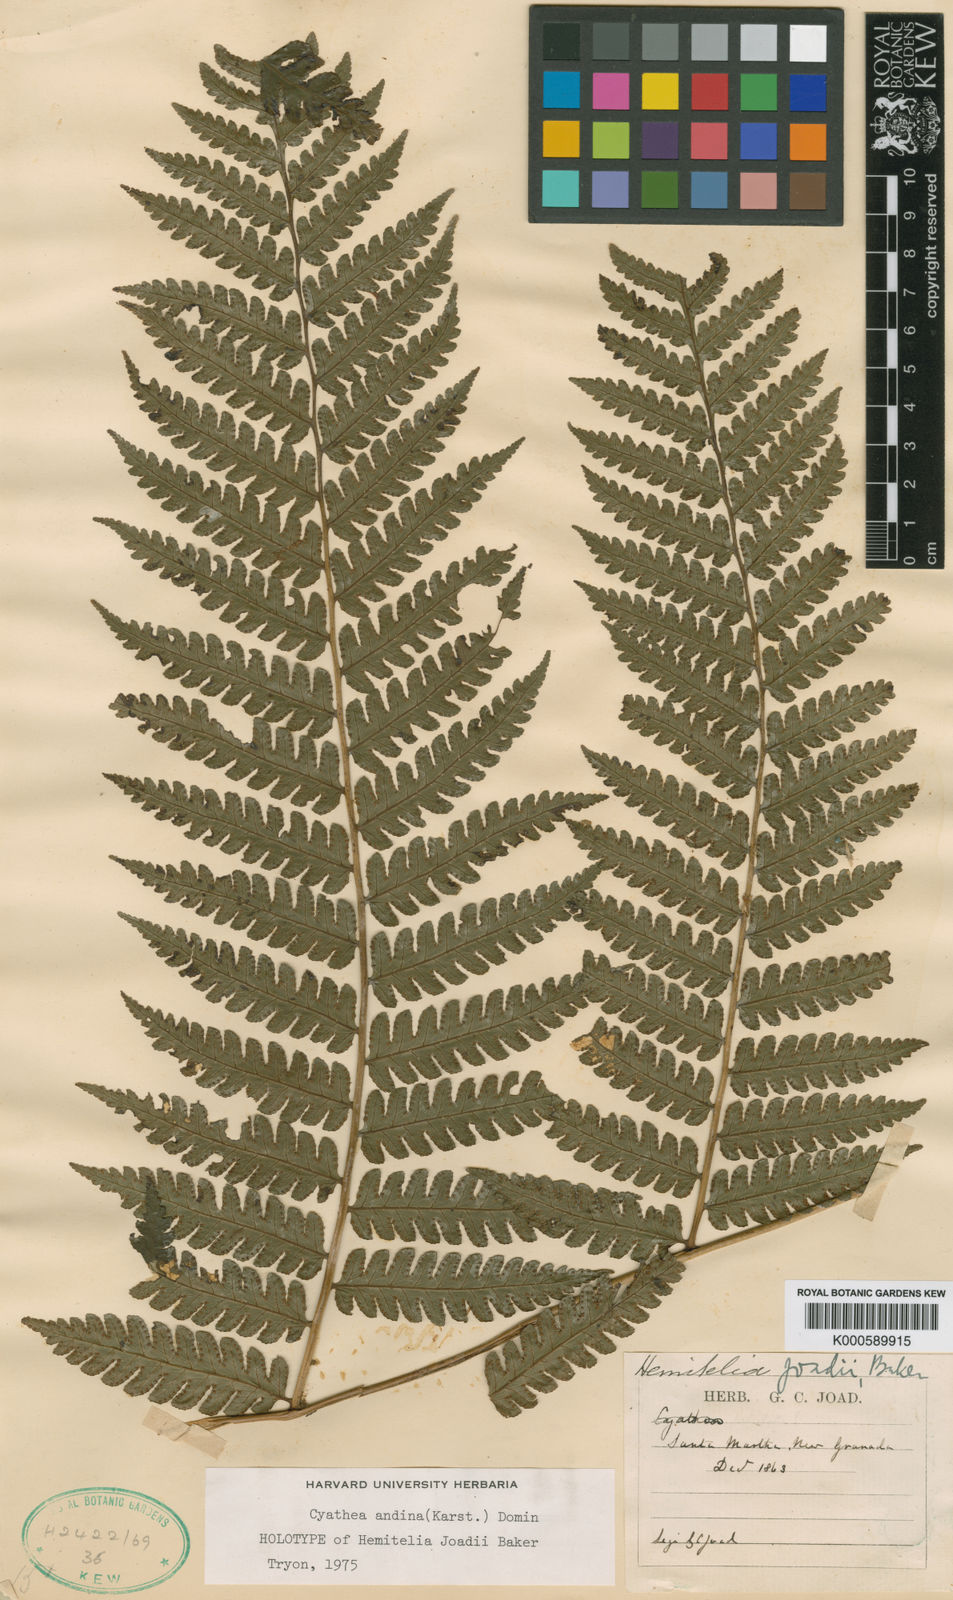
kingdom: Plantae
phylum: Tracheophyta
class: Polypodiopsida
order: Cyatheales
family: Cyatheaceae
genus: Cyathea
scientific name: Cyathea andina
